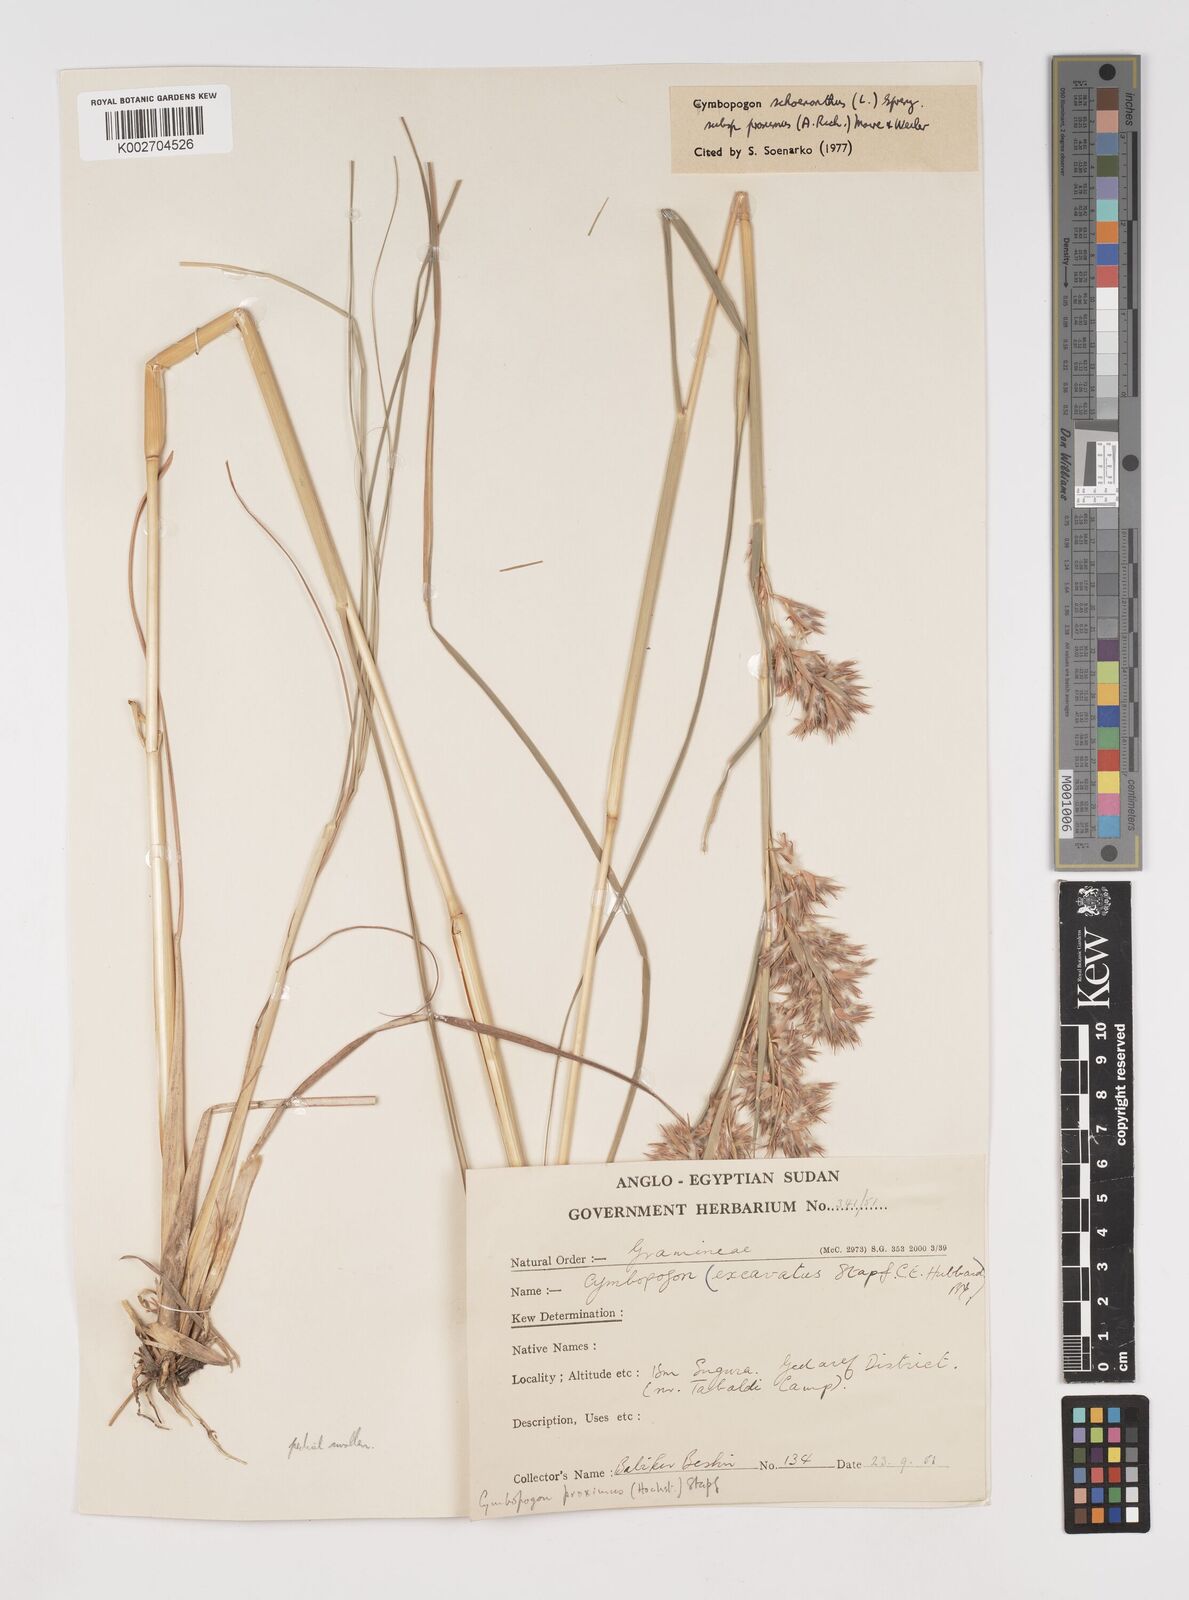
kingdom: Plantae
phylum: Tracheophyta
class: Liliopsida
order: Poales
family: Poaceae
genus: Cymbopogon
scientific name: Cymbopogon schoenanthus
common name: Geranium grass
